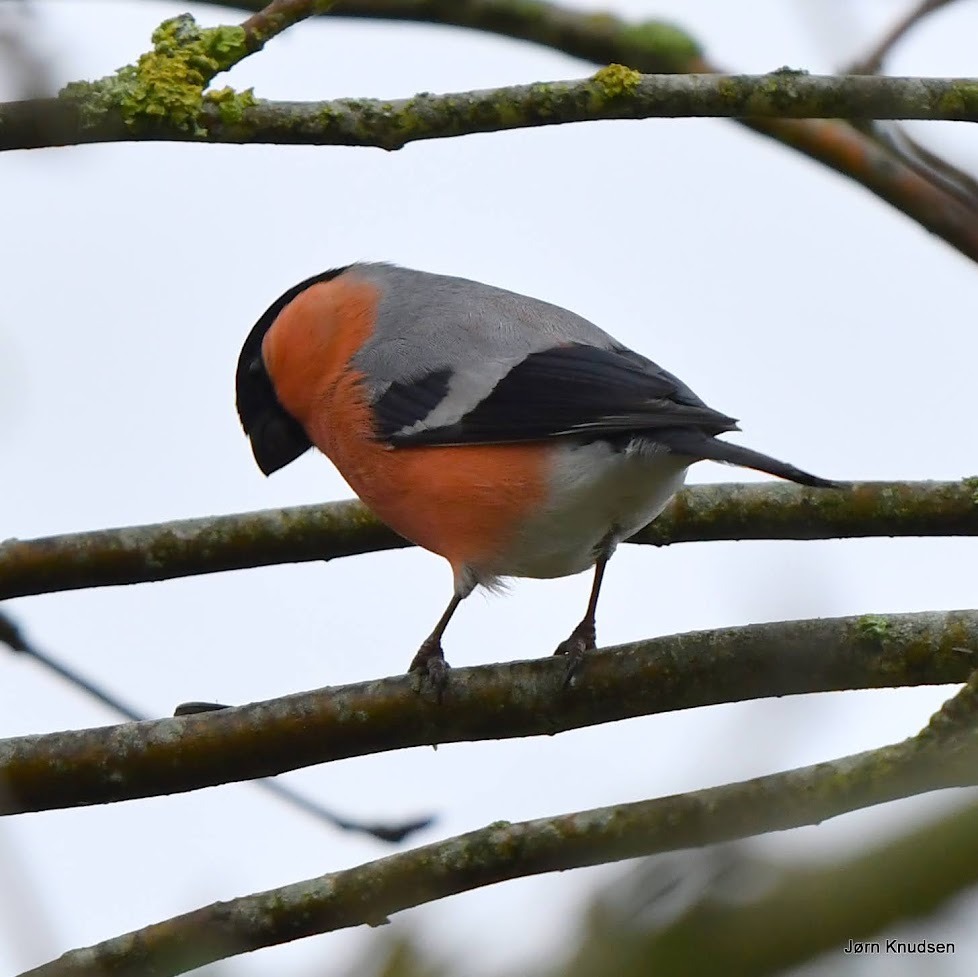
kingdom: Animalia
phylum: Chordata
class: Aves
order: Passeriformes
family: Fringillidae
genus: Pyrrhula
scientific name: Pyrrhula pyrrhula
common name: Dompap
